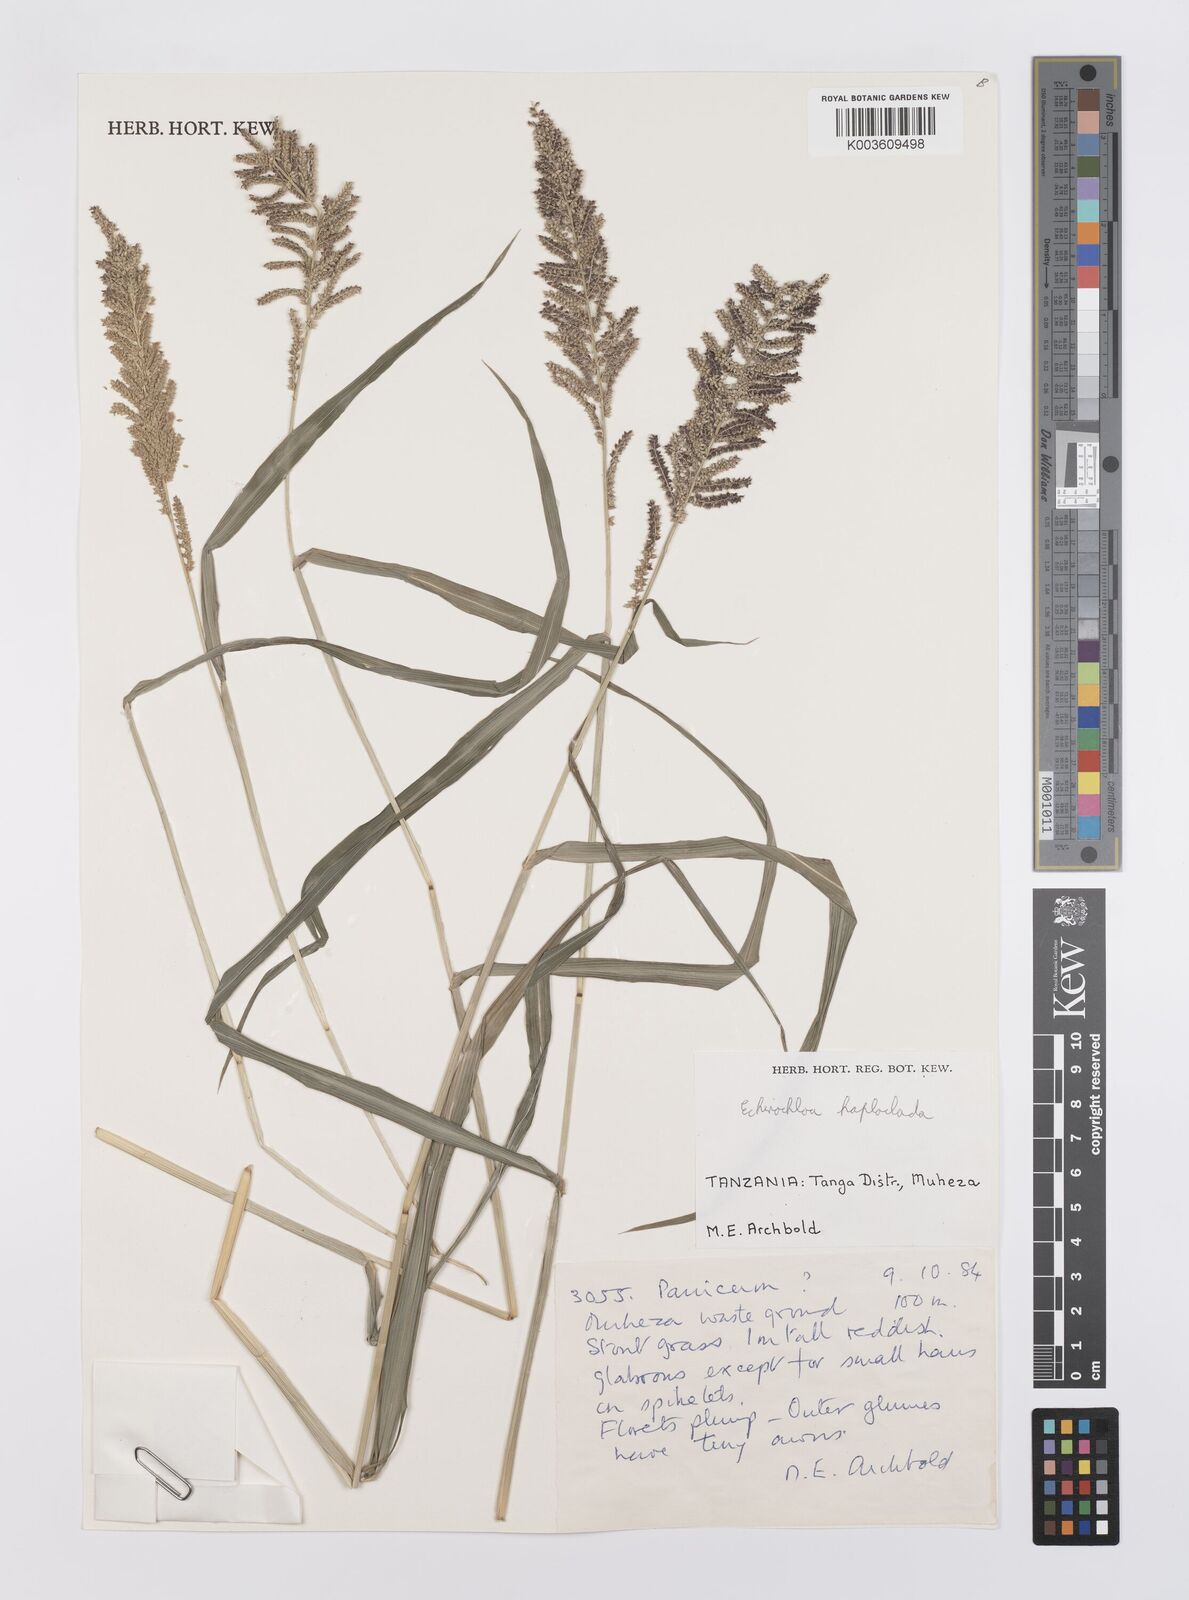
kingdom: Plantae
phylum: Tracheophyta
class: Liliopsida
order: Poales
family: Poaceae
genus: Echinochloa
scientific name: Echinochloa haploclada
